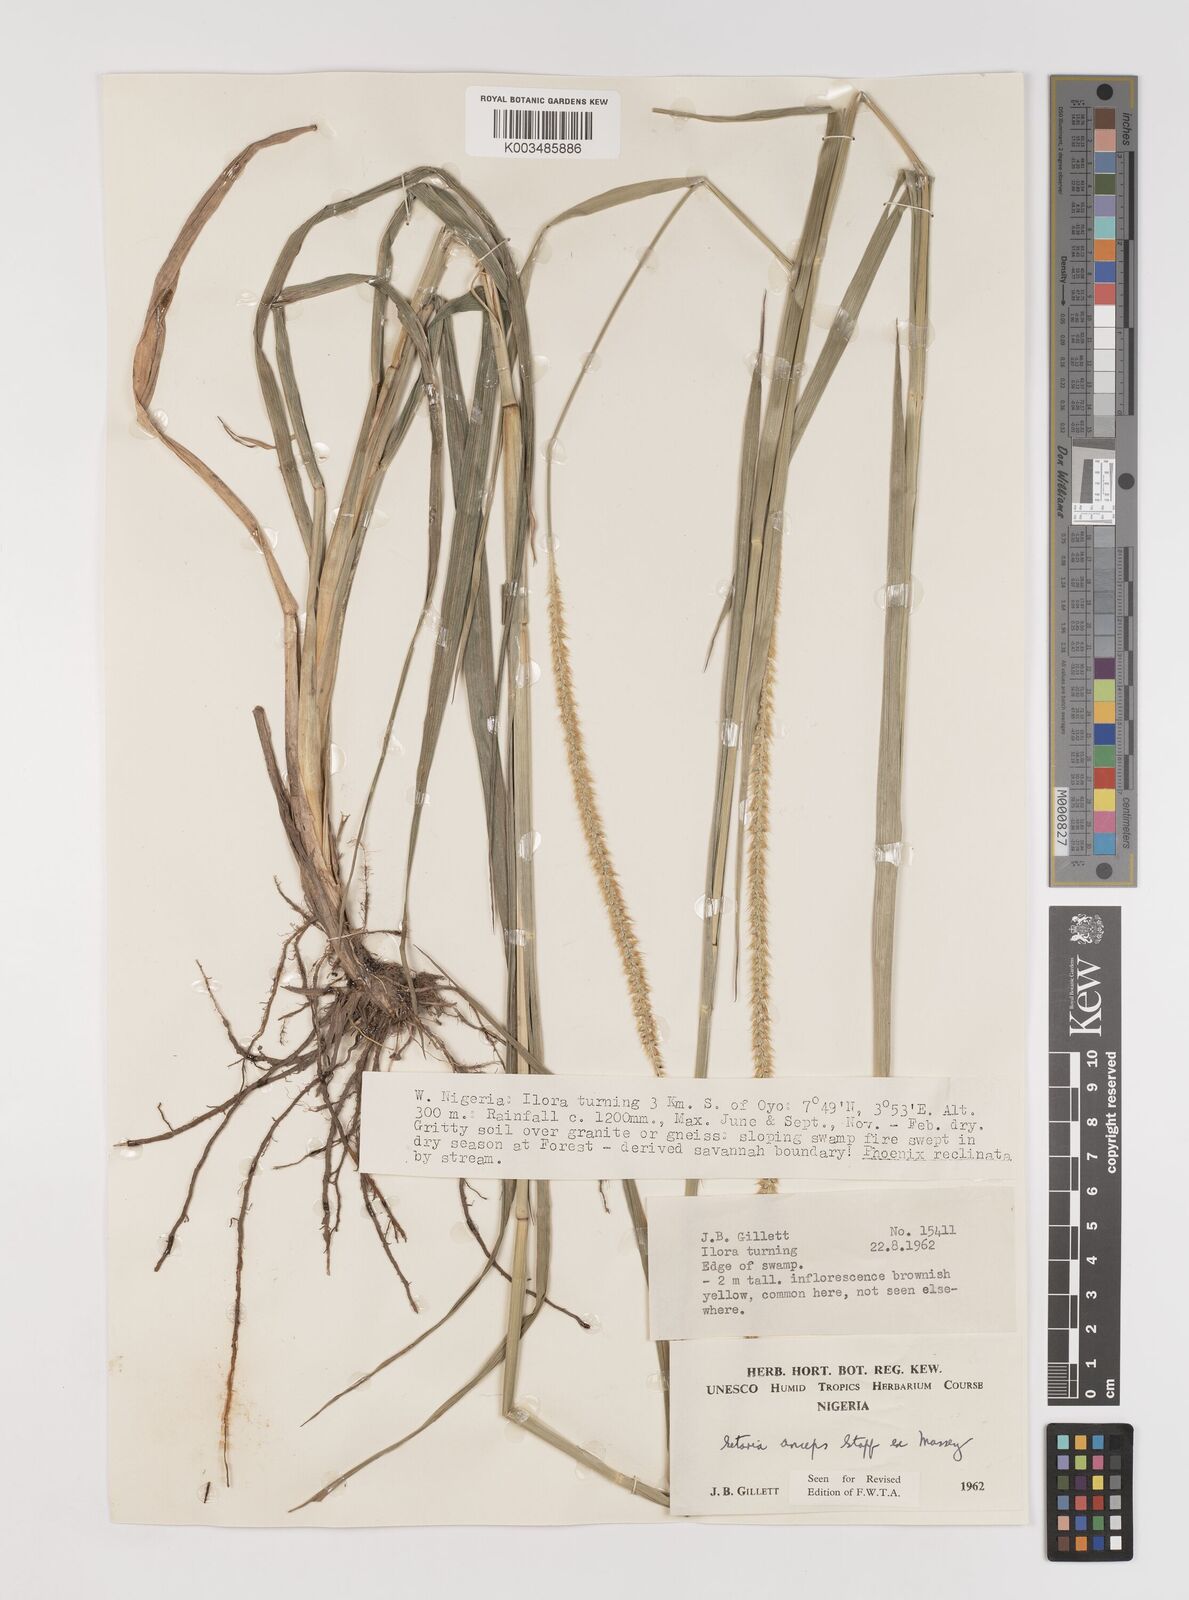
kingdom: Plantae
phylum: Tracheophyta
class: Liliopsida
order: Poales
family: Poaceae
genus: Setaria
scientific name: Setaria sphacelata
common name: African bristlegrass
